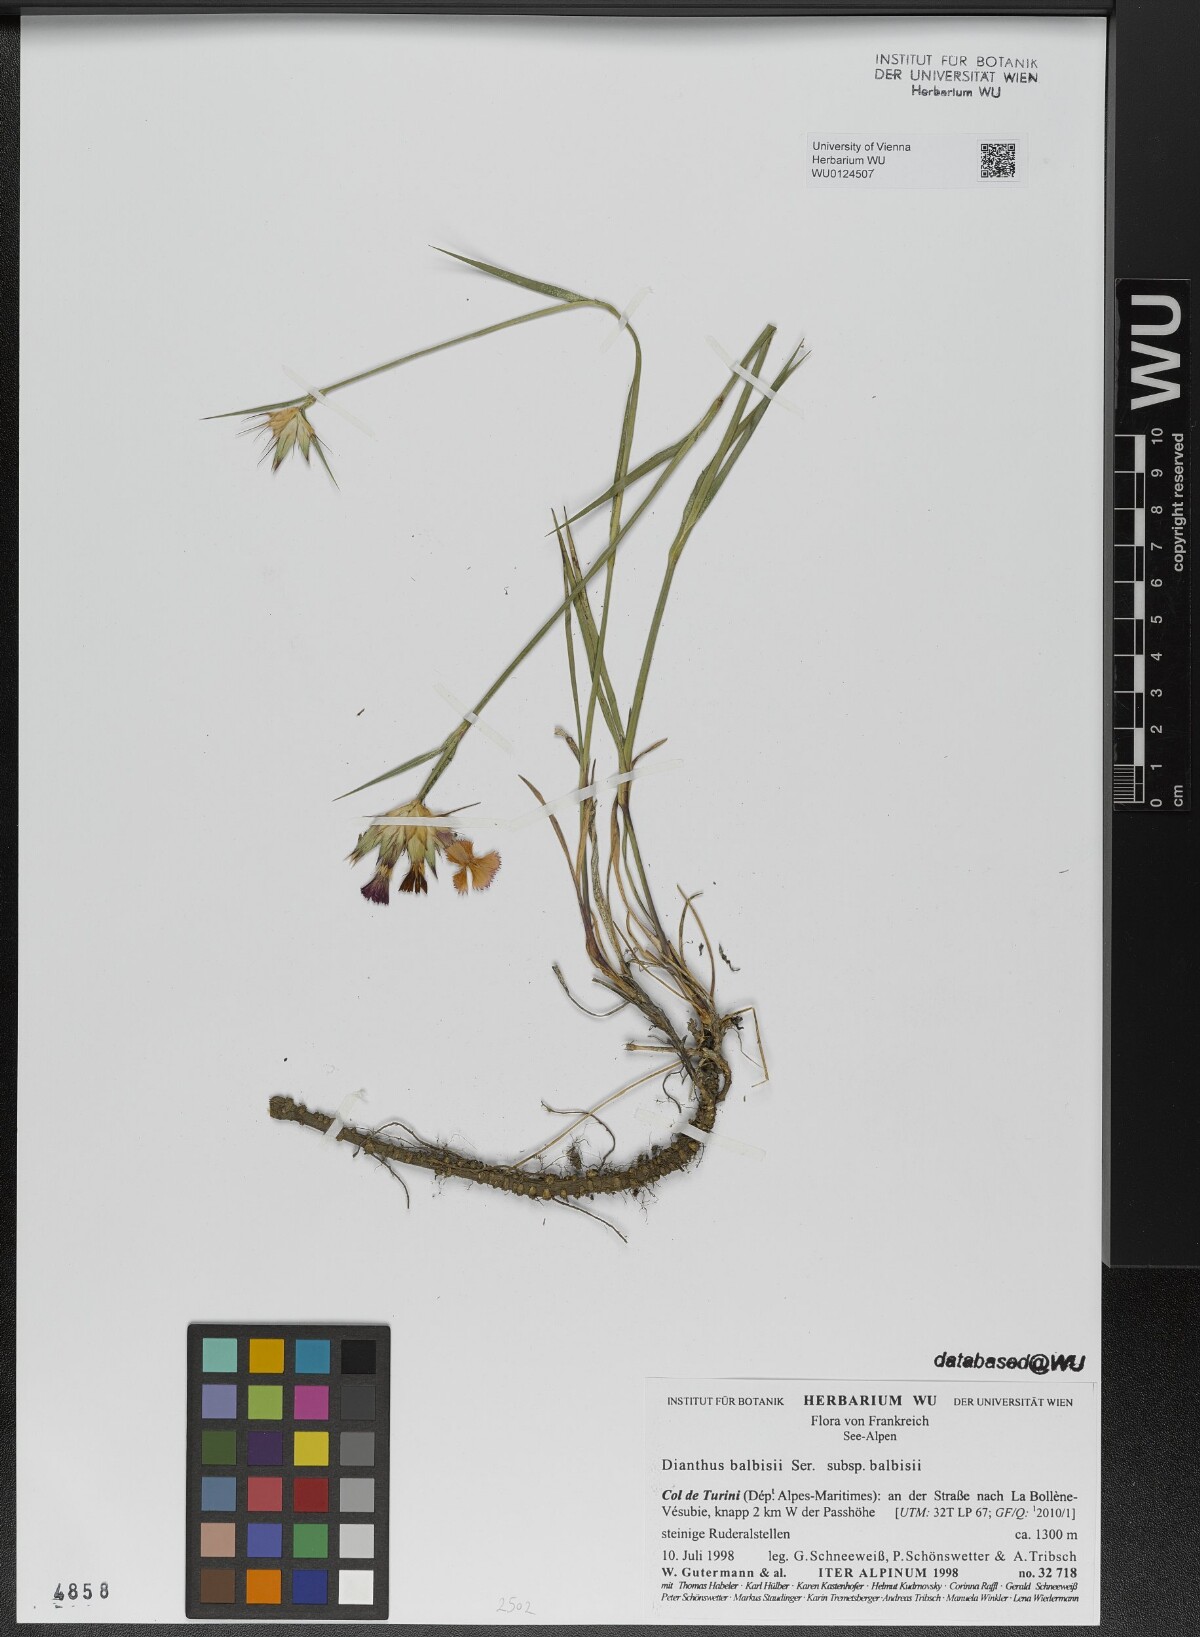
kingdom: Plantae
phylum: Tracheophyta
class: Magnoliopsida
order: Caryophyllales
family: Caryophyllaceae
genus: Dianthus
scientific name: Dianthus balbisii
